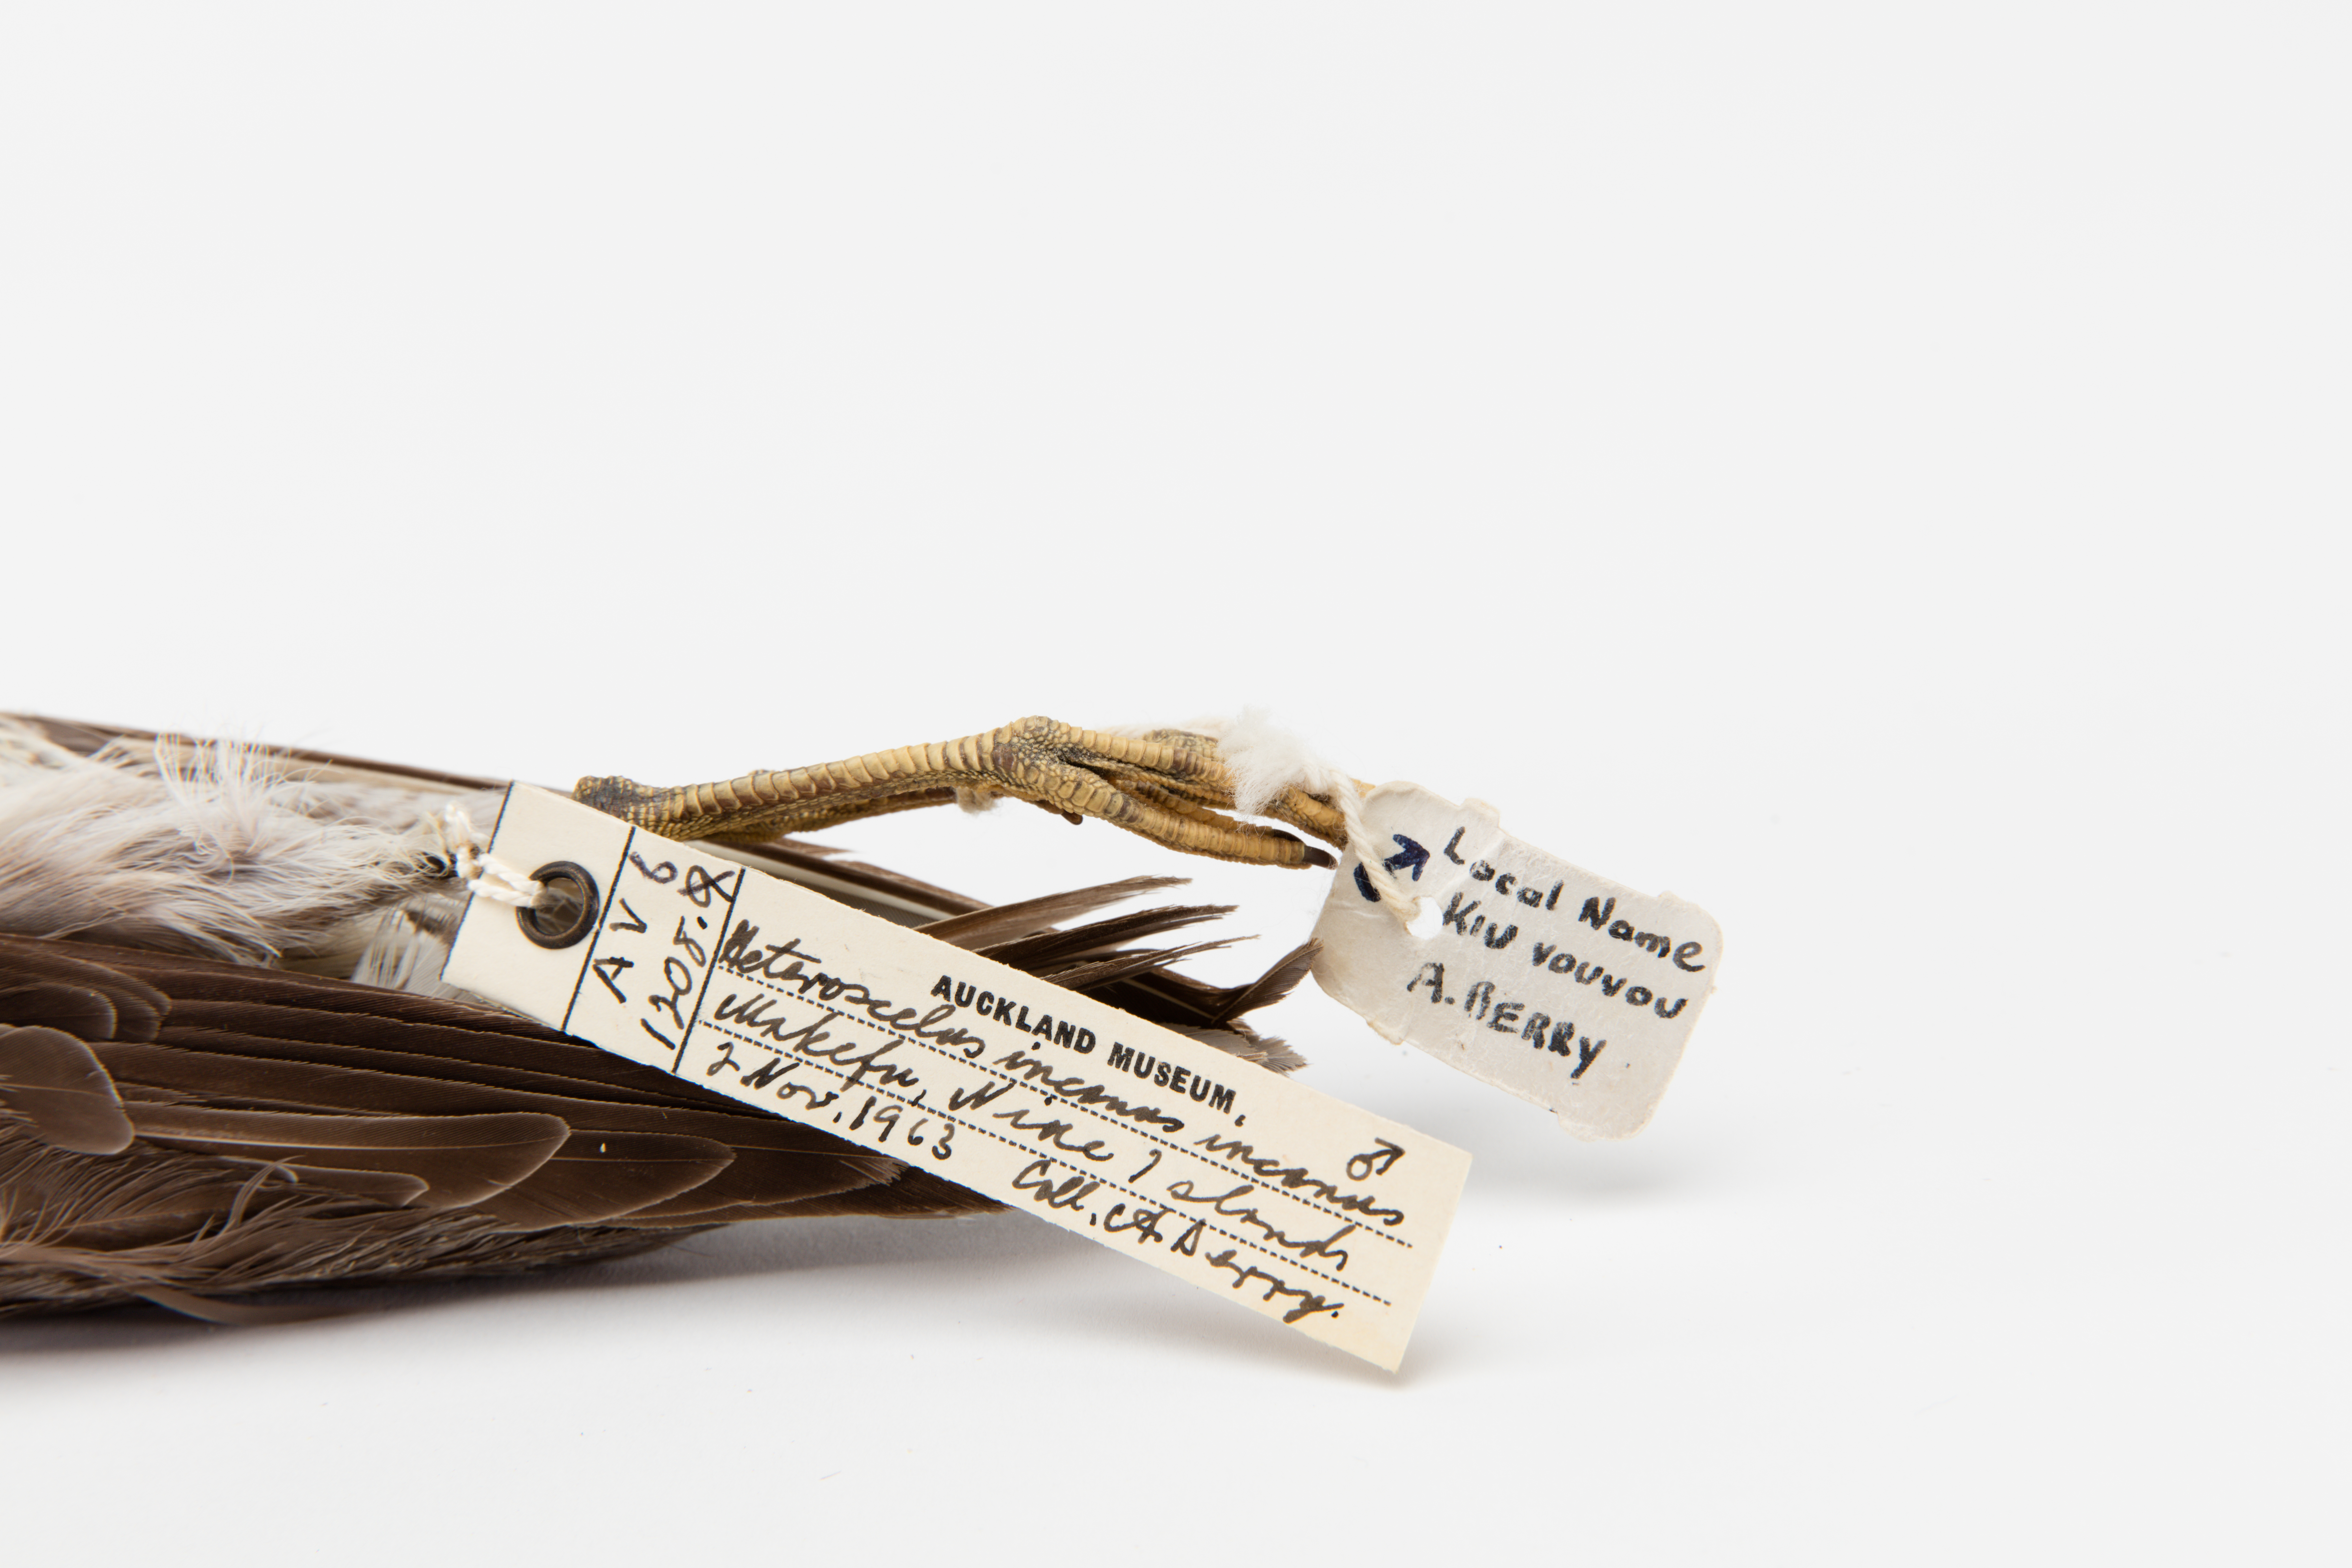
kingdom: Animalia
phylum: Chordata
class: Aves
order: Charadriiformes
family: Scolopacidae
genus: Tringa
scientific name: Tringa incana
